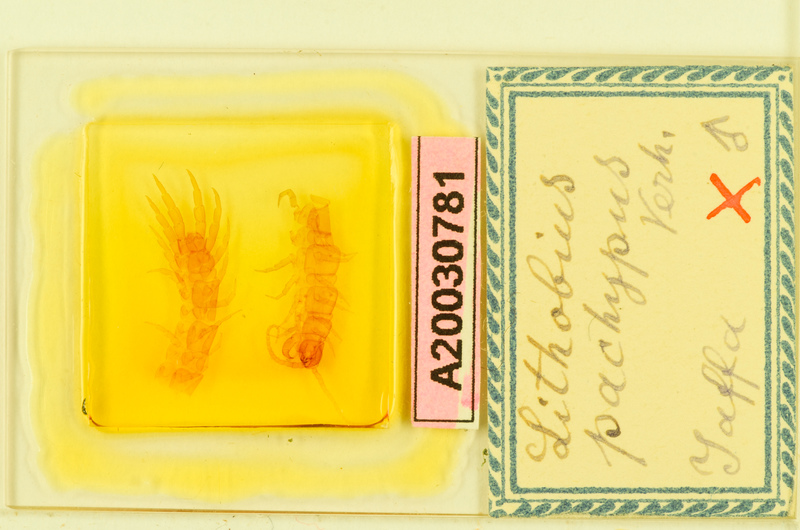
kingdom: Animalia
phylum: Arthropoda
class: Chilopoda
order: Lithobiomorpha
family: Lithobiidae
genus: Hessebius
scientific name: Hessebius barbipes
